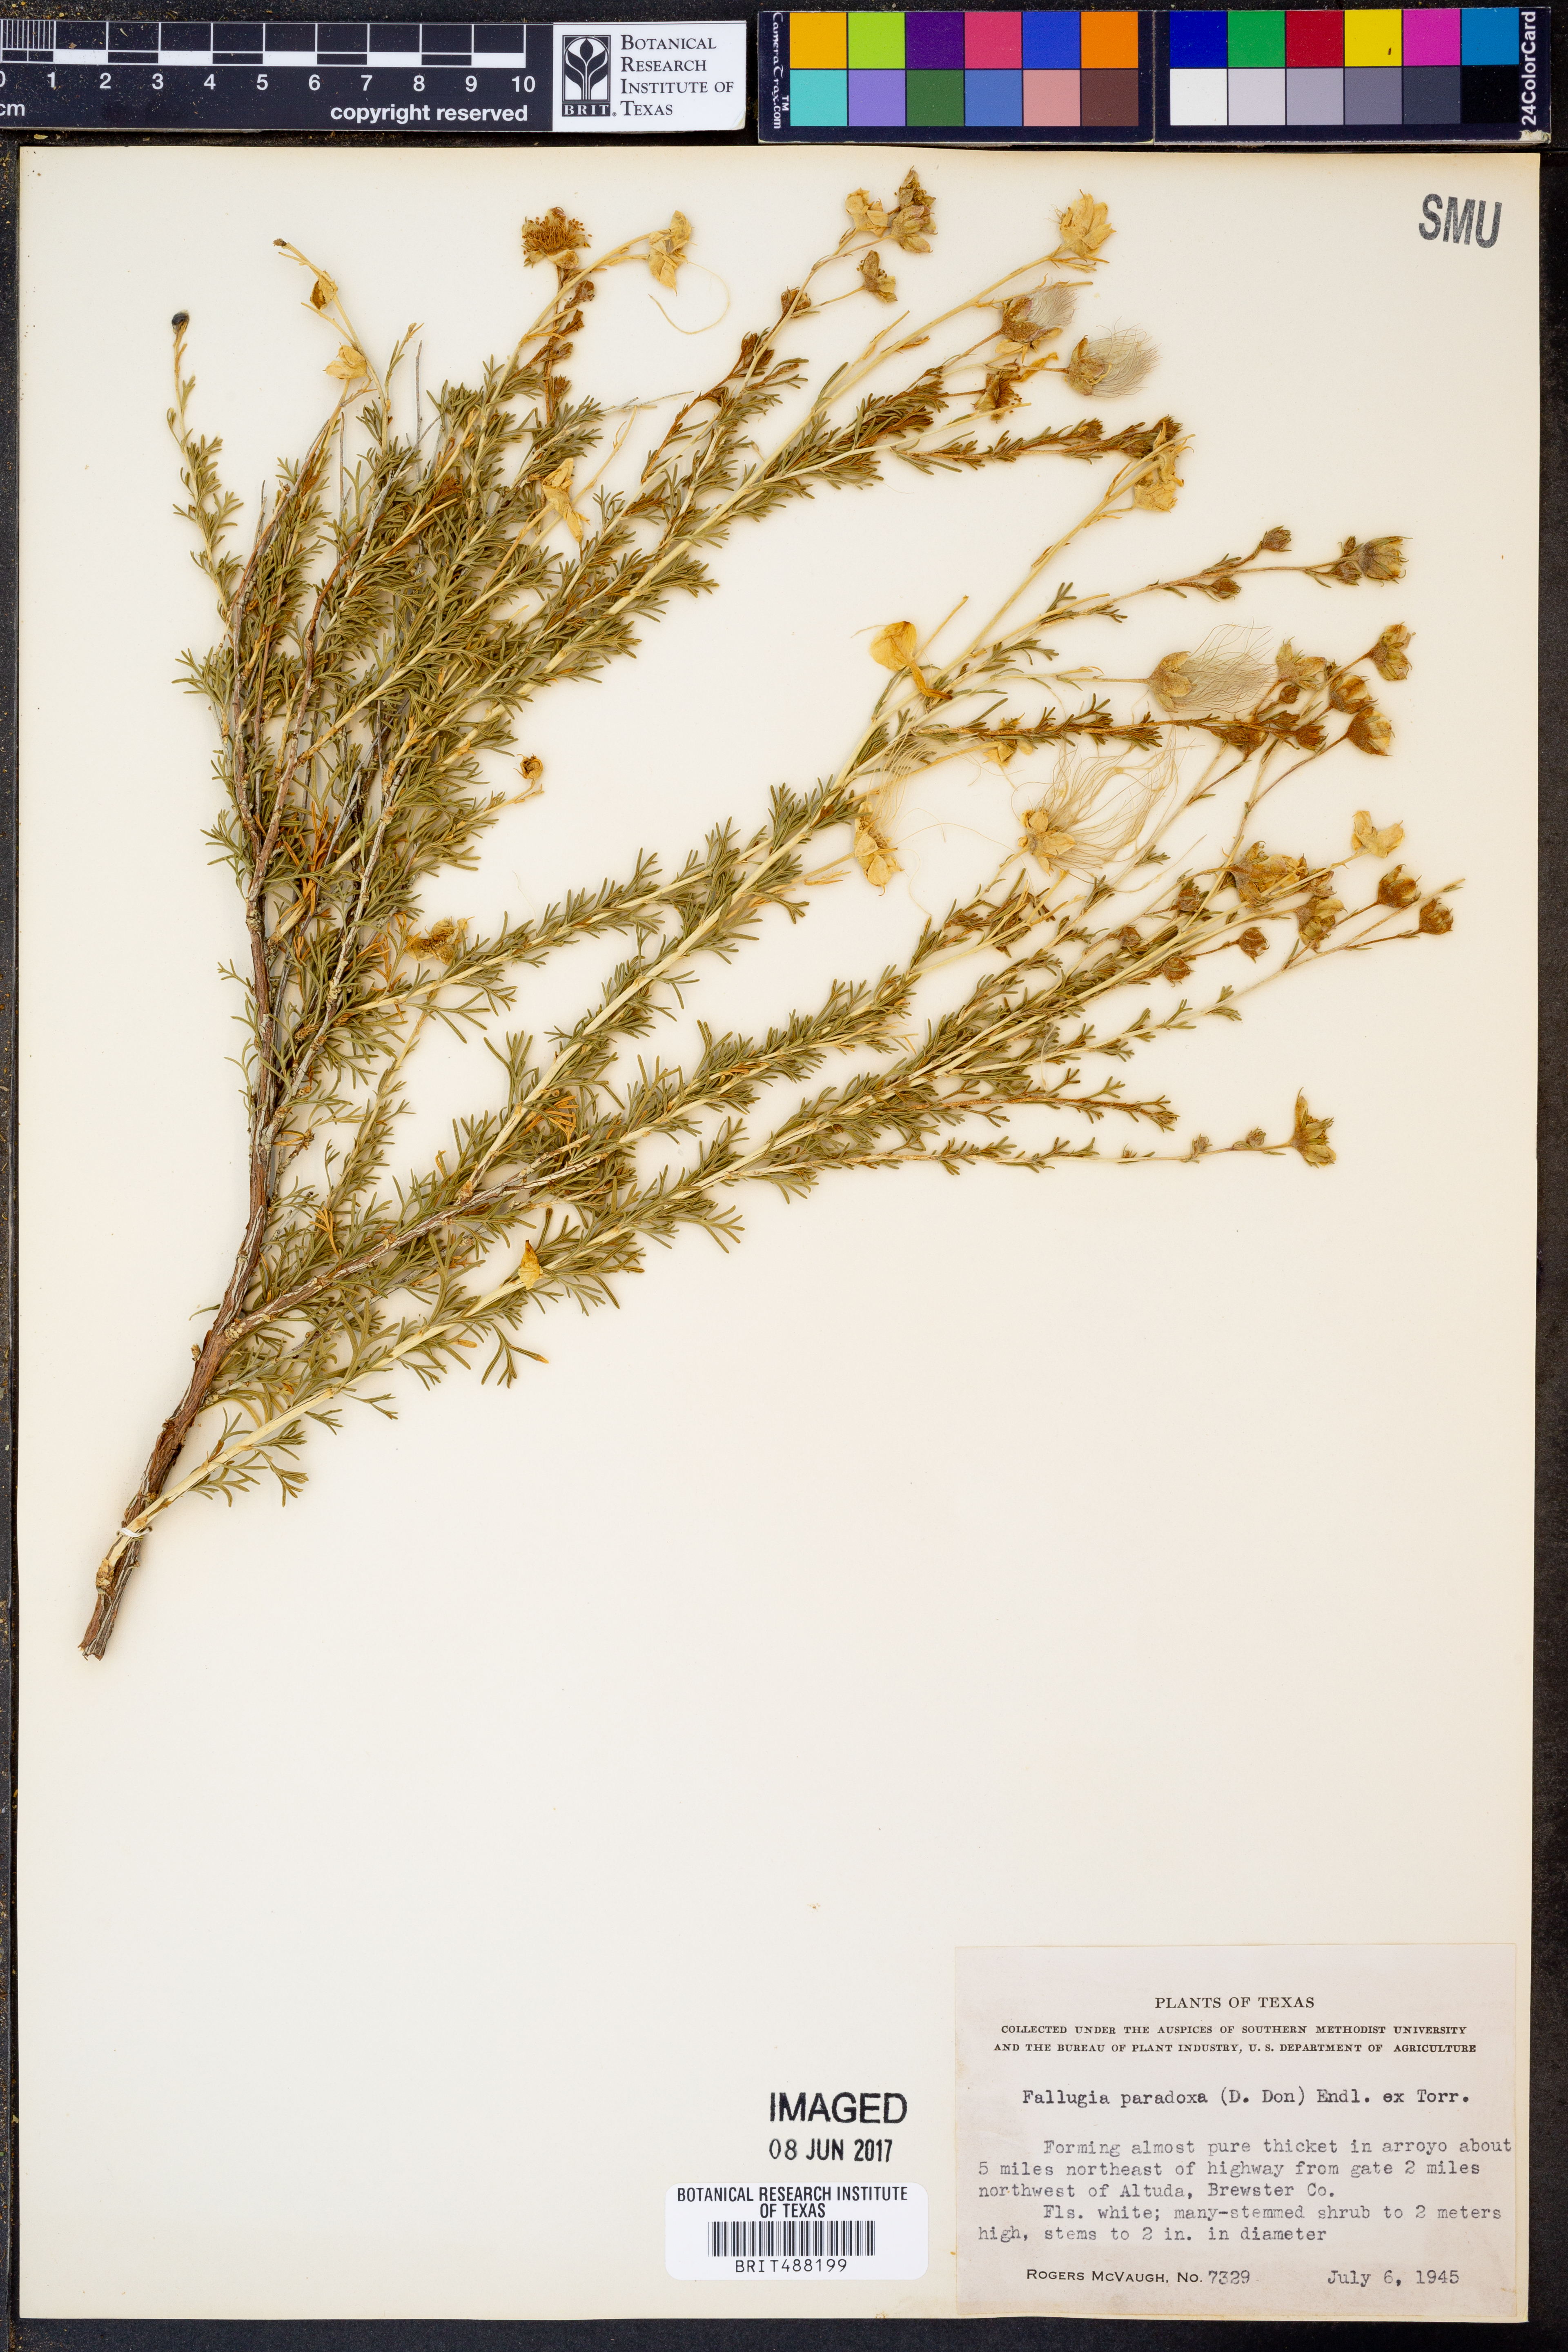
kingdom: Plantae
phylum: Tracheophyta
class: Magnoliopsida
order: Rosales
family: Rosaceae
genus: Fallugia
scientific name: Fallugia paradoxa
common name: Apache-plume
